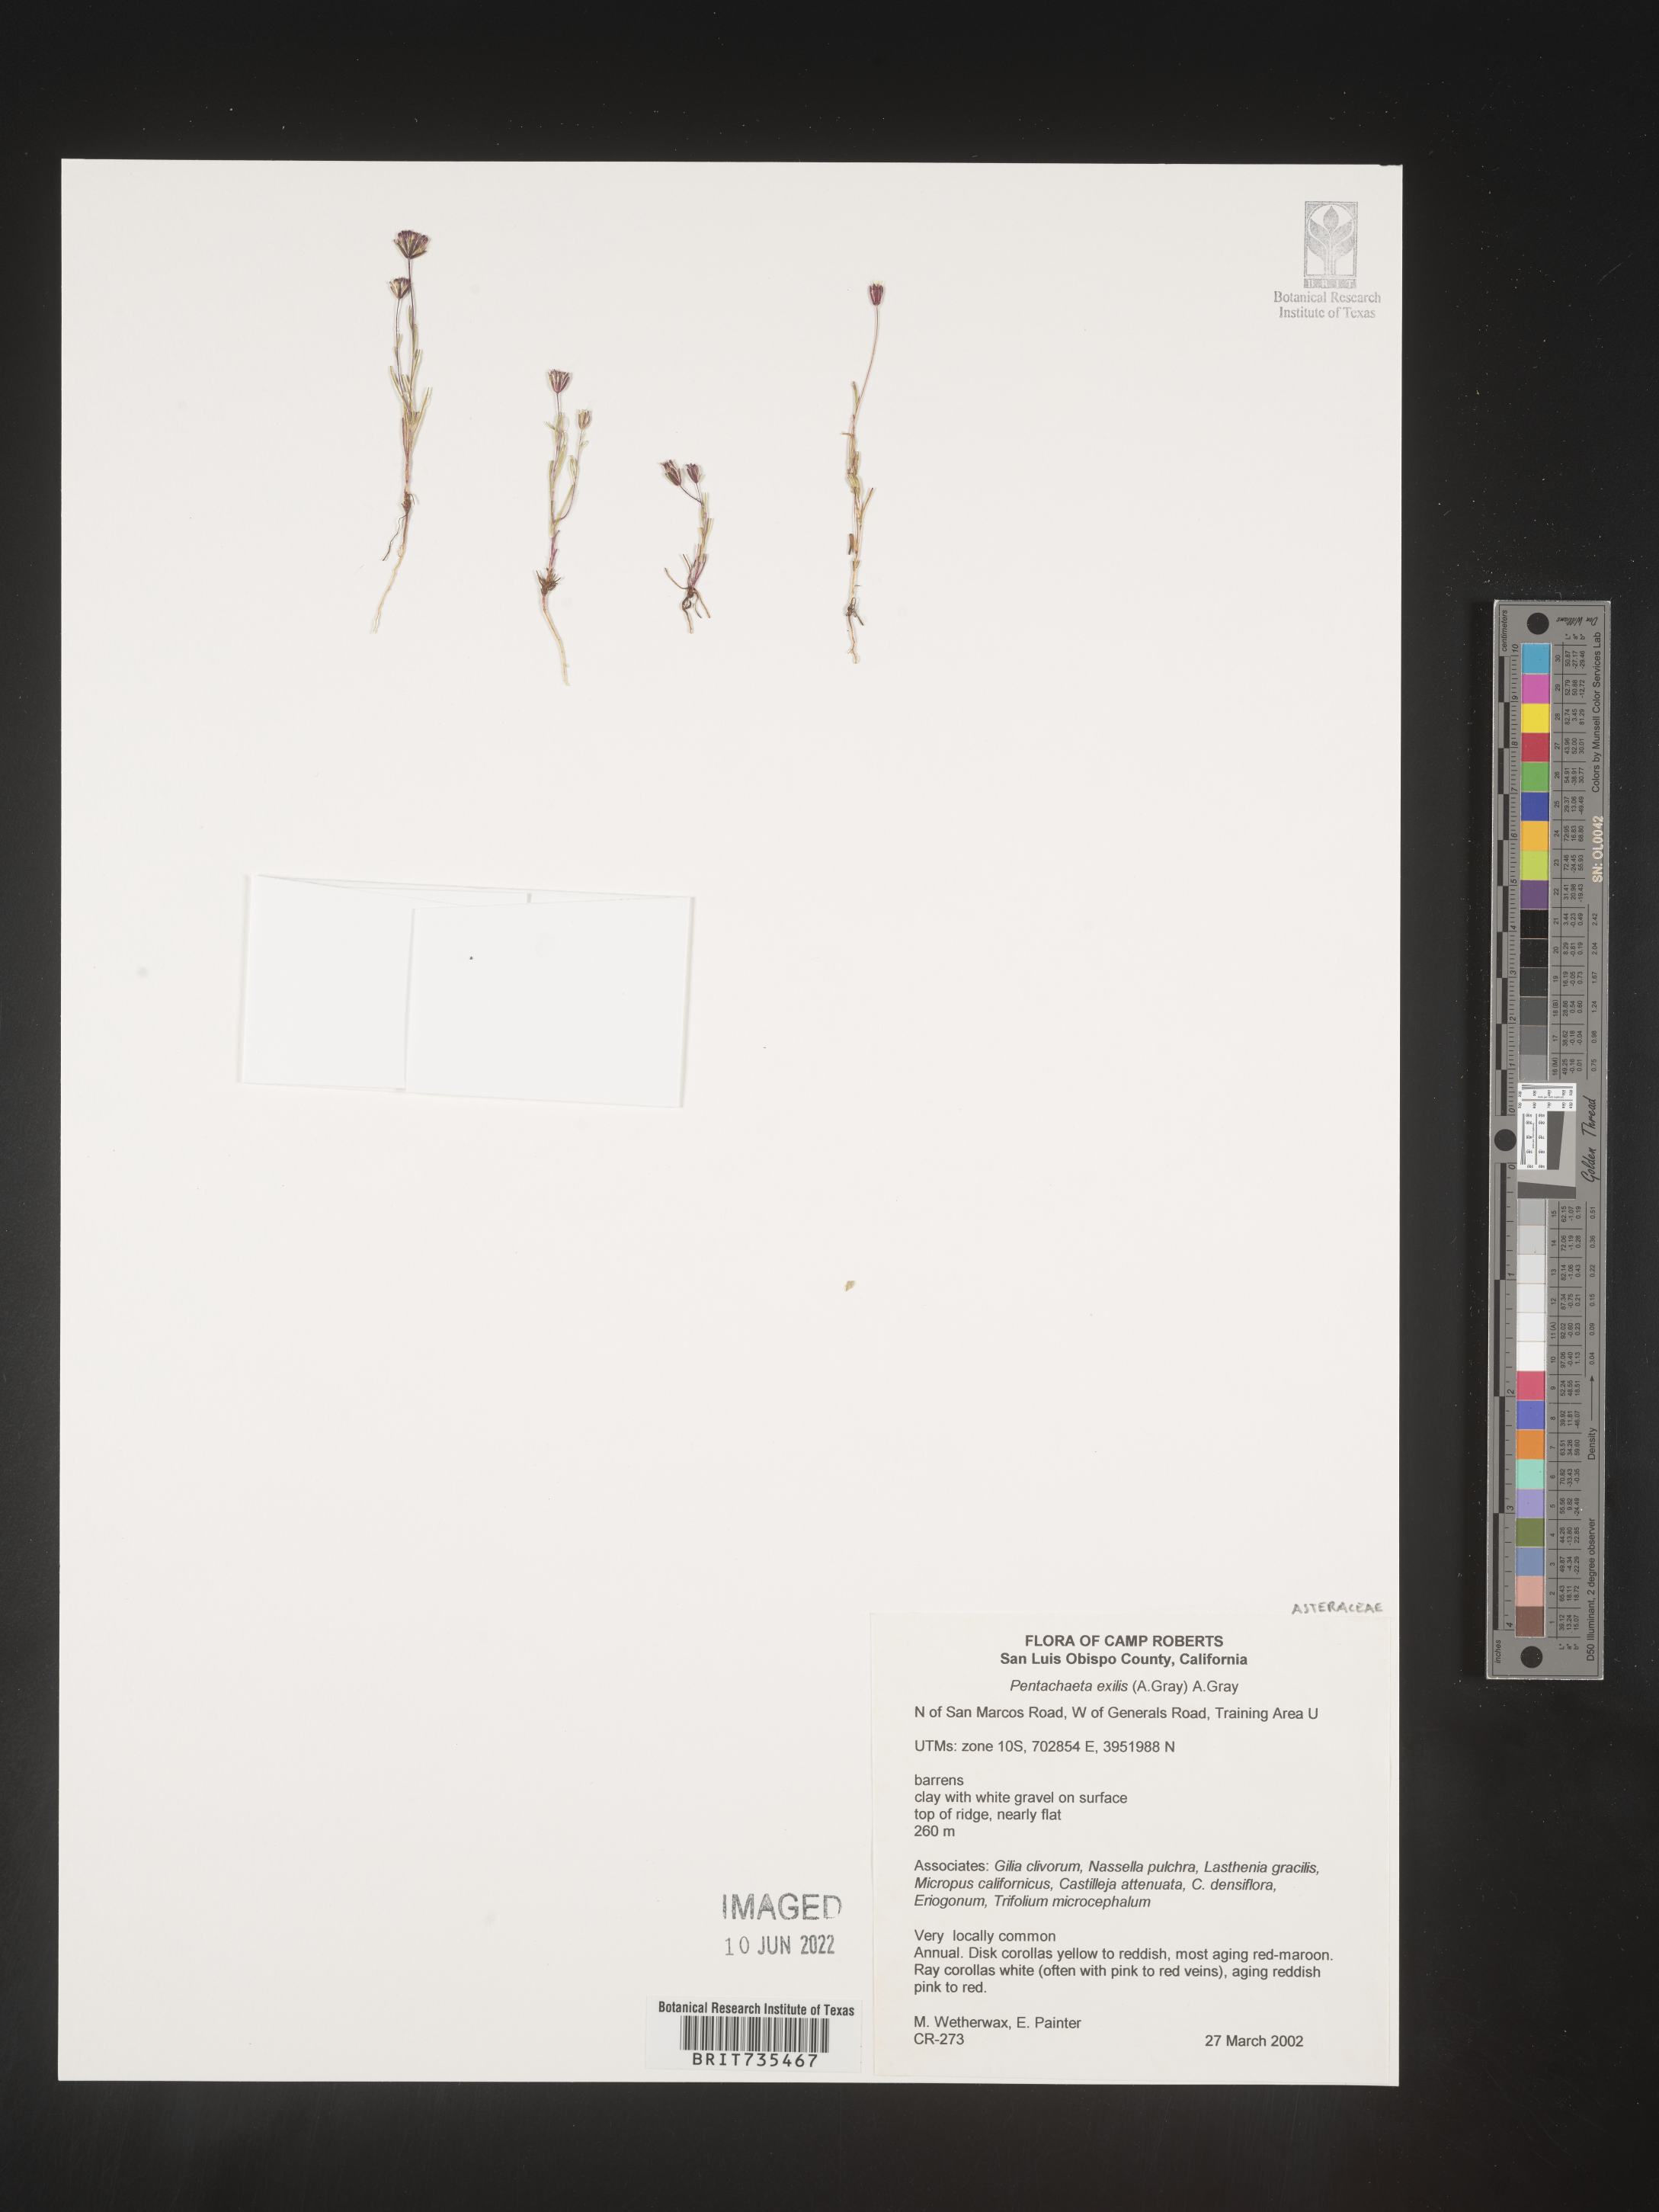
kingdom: Plantae
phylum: Tracheophyta
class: Magnoliopsida
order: Asterales
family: Asteraceae
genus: Pentachaeta
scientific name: Pentachaeta exilis
